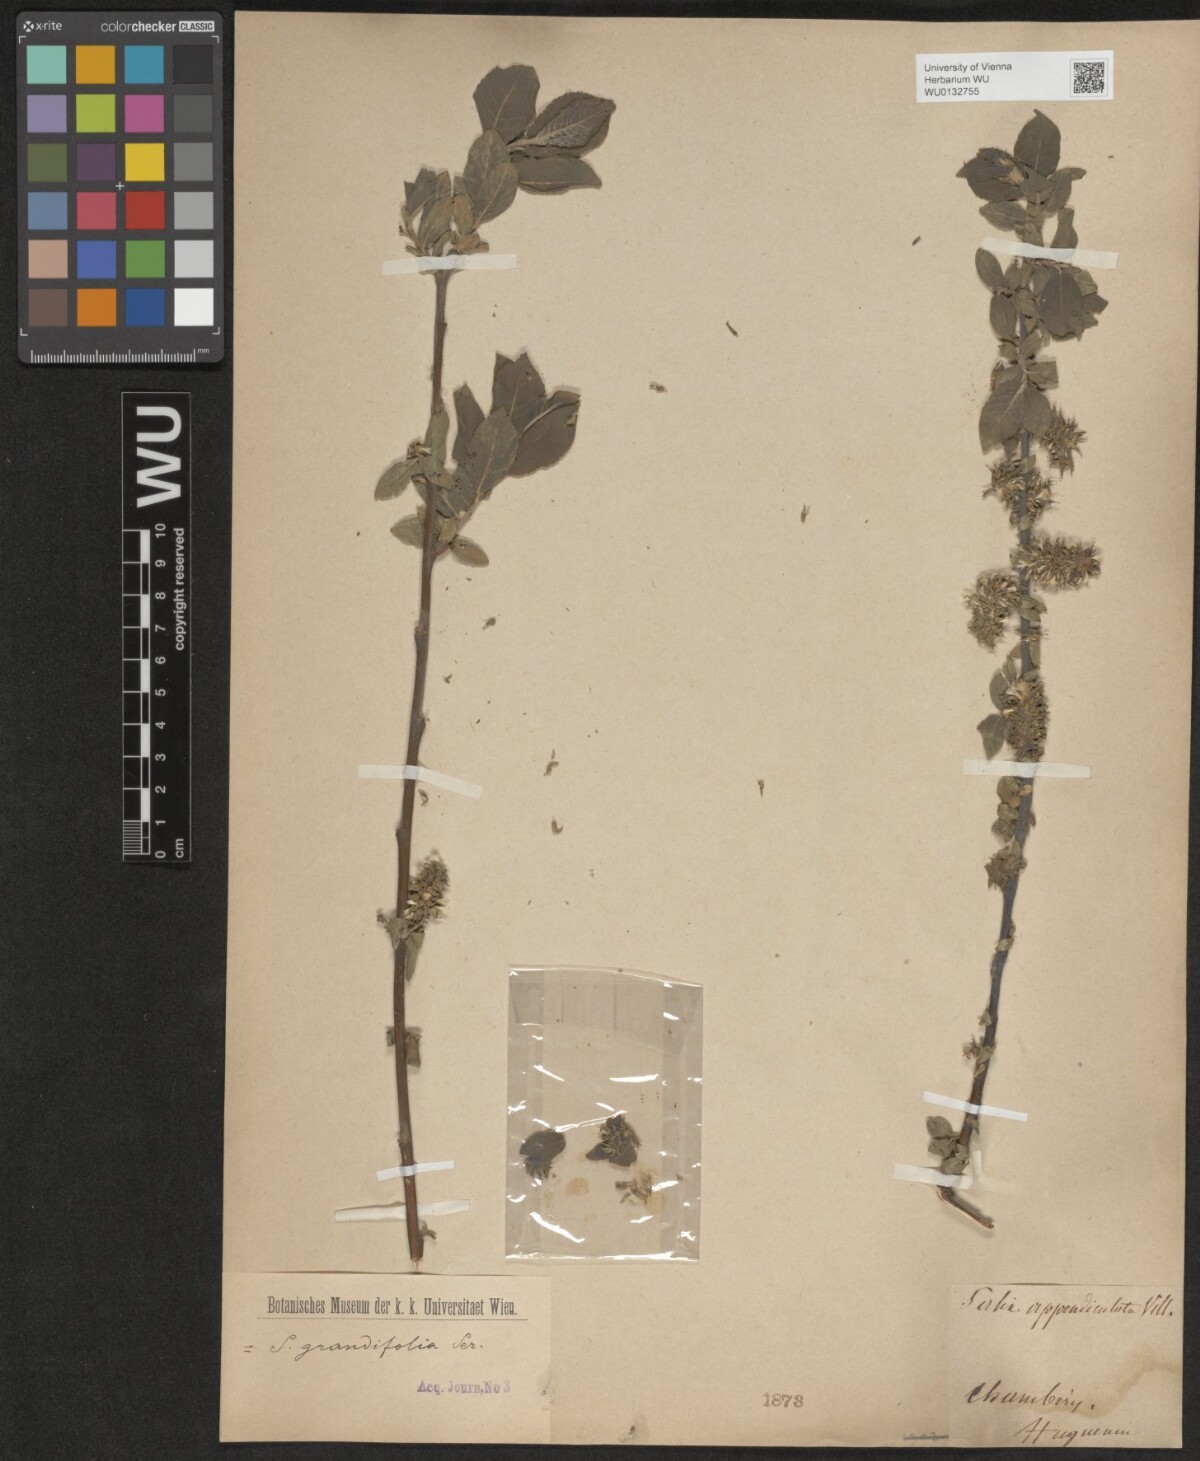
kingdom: Plantae
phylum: Tracheophyta
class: Magnoliopsida
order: Malpighiales
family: Salicaceae
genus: Salix
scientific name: Salix appendiculata
